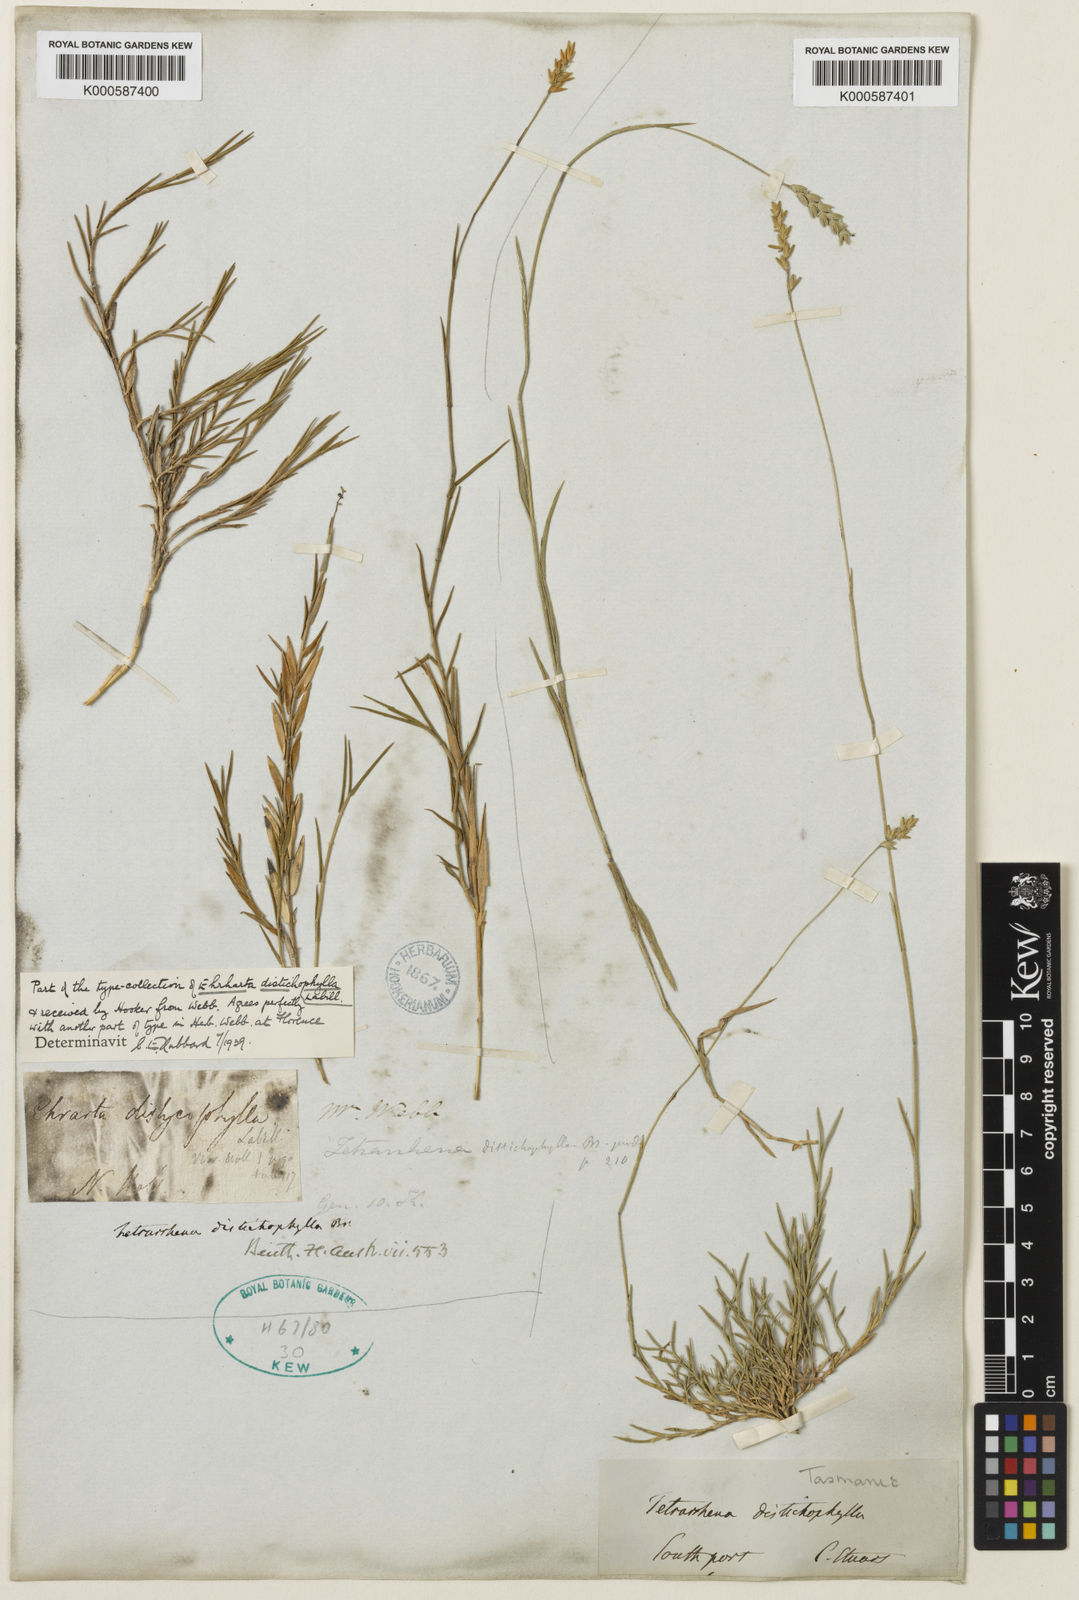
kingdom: Plantae
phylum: Tracheophyta
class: Liliopsida
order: Poales
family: Poaceae
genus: Tetrarrhena
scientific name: Tetrarrhena distichophylla
